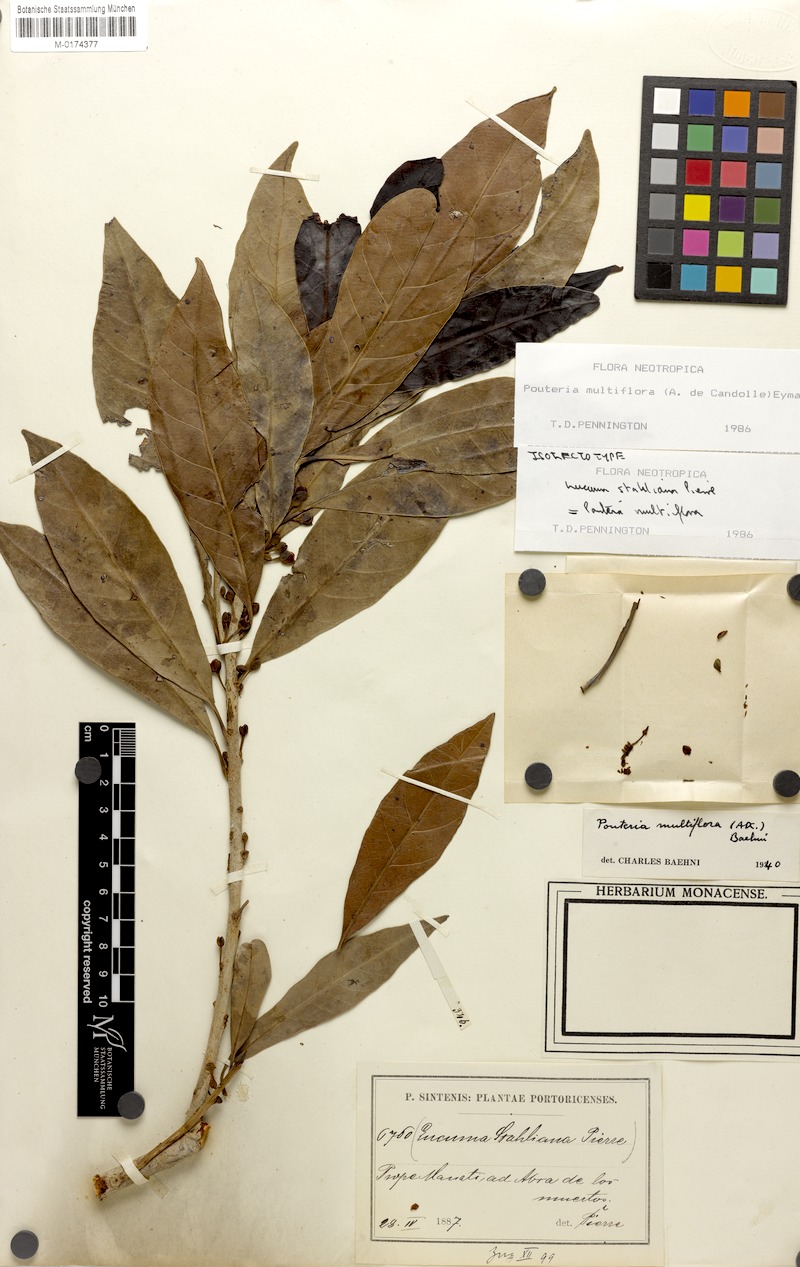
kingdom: Plantae
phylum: Tracheophyta
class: Magnoliopsida
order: Ericales
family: Sapotaceae
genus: Pouteria
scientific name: Pouteria multiflora
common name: Bullytree
